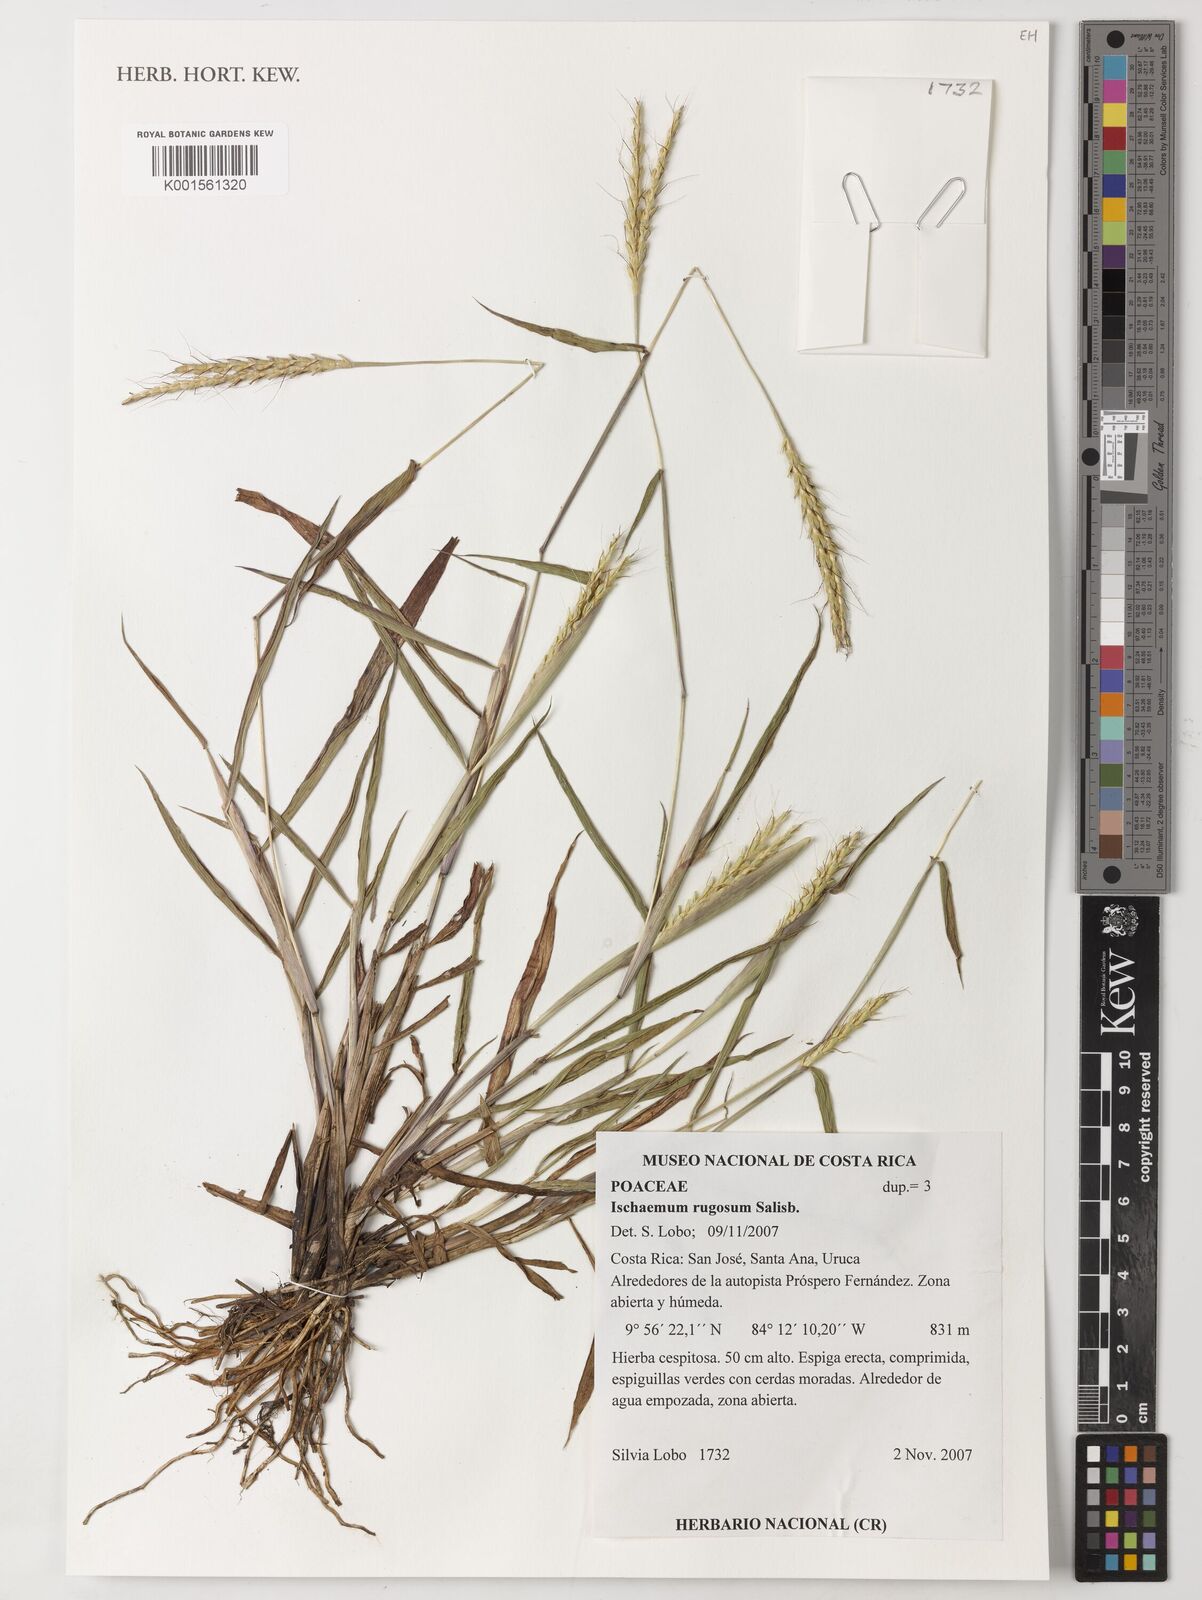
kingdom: Plantae
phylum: Tracheophyta
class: Liliopsida
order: Poales
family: Poaceae
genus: Ischaemum
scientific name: Ischaemum rugosum
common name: Saramatta grass
